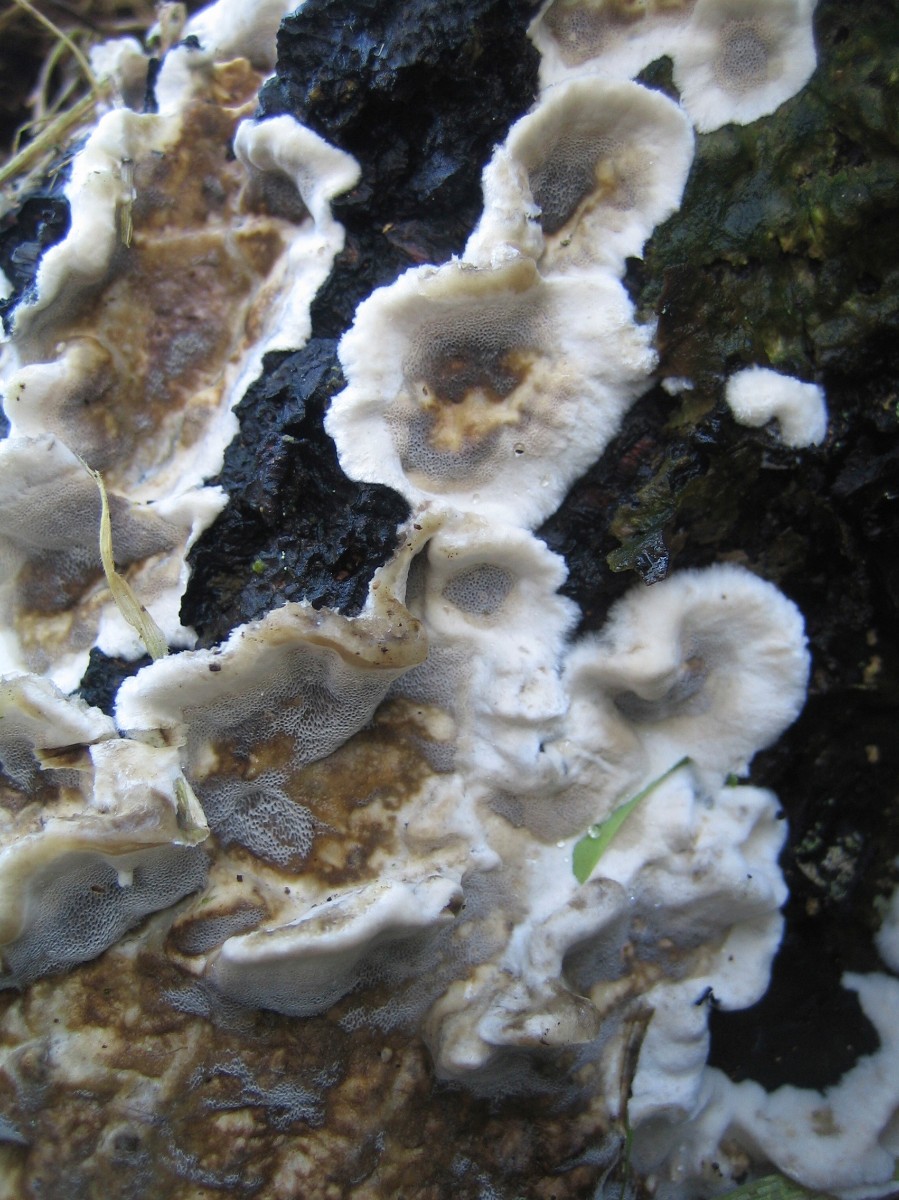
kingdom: Fungi
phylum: Basidiomycota
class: Agaricomycetes
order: Polyporales
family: Phanerochaetaceae
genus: Bjerkandera
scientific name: Bjerkandera adusta
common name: sveden sodporesvamp
